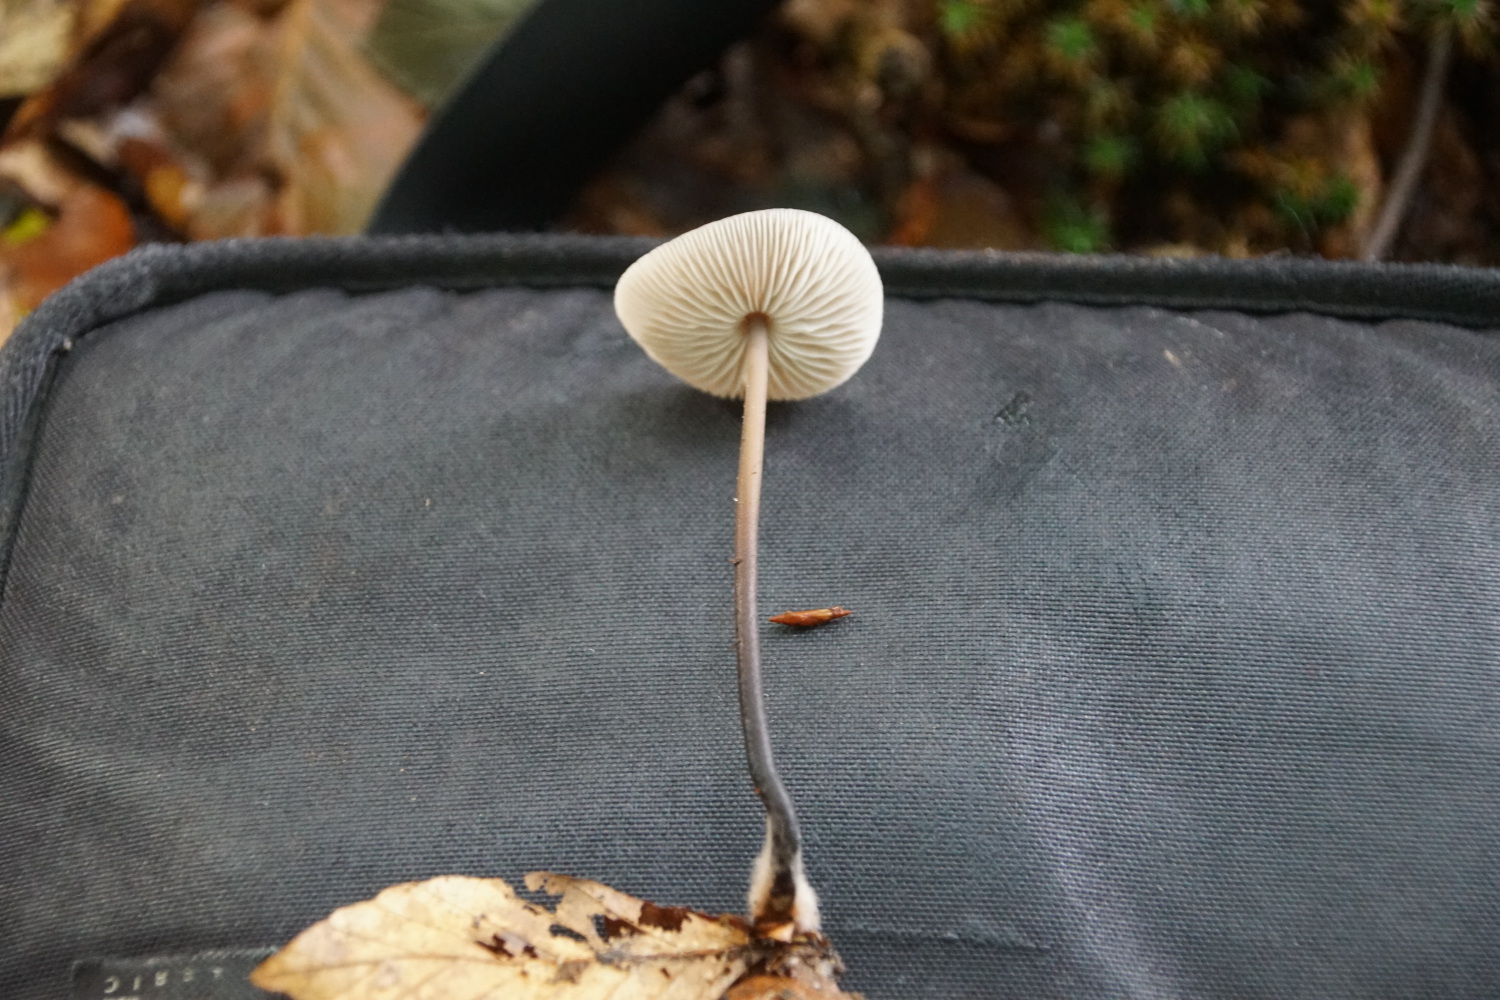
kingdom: Fungi
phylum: Basidiomycota
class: Agaricomycetes
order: Agaricales
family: Omphalotaceae
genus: Mycetinis
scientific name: Mycetinis alliaceus
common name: stor løghat
